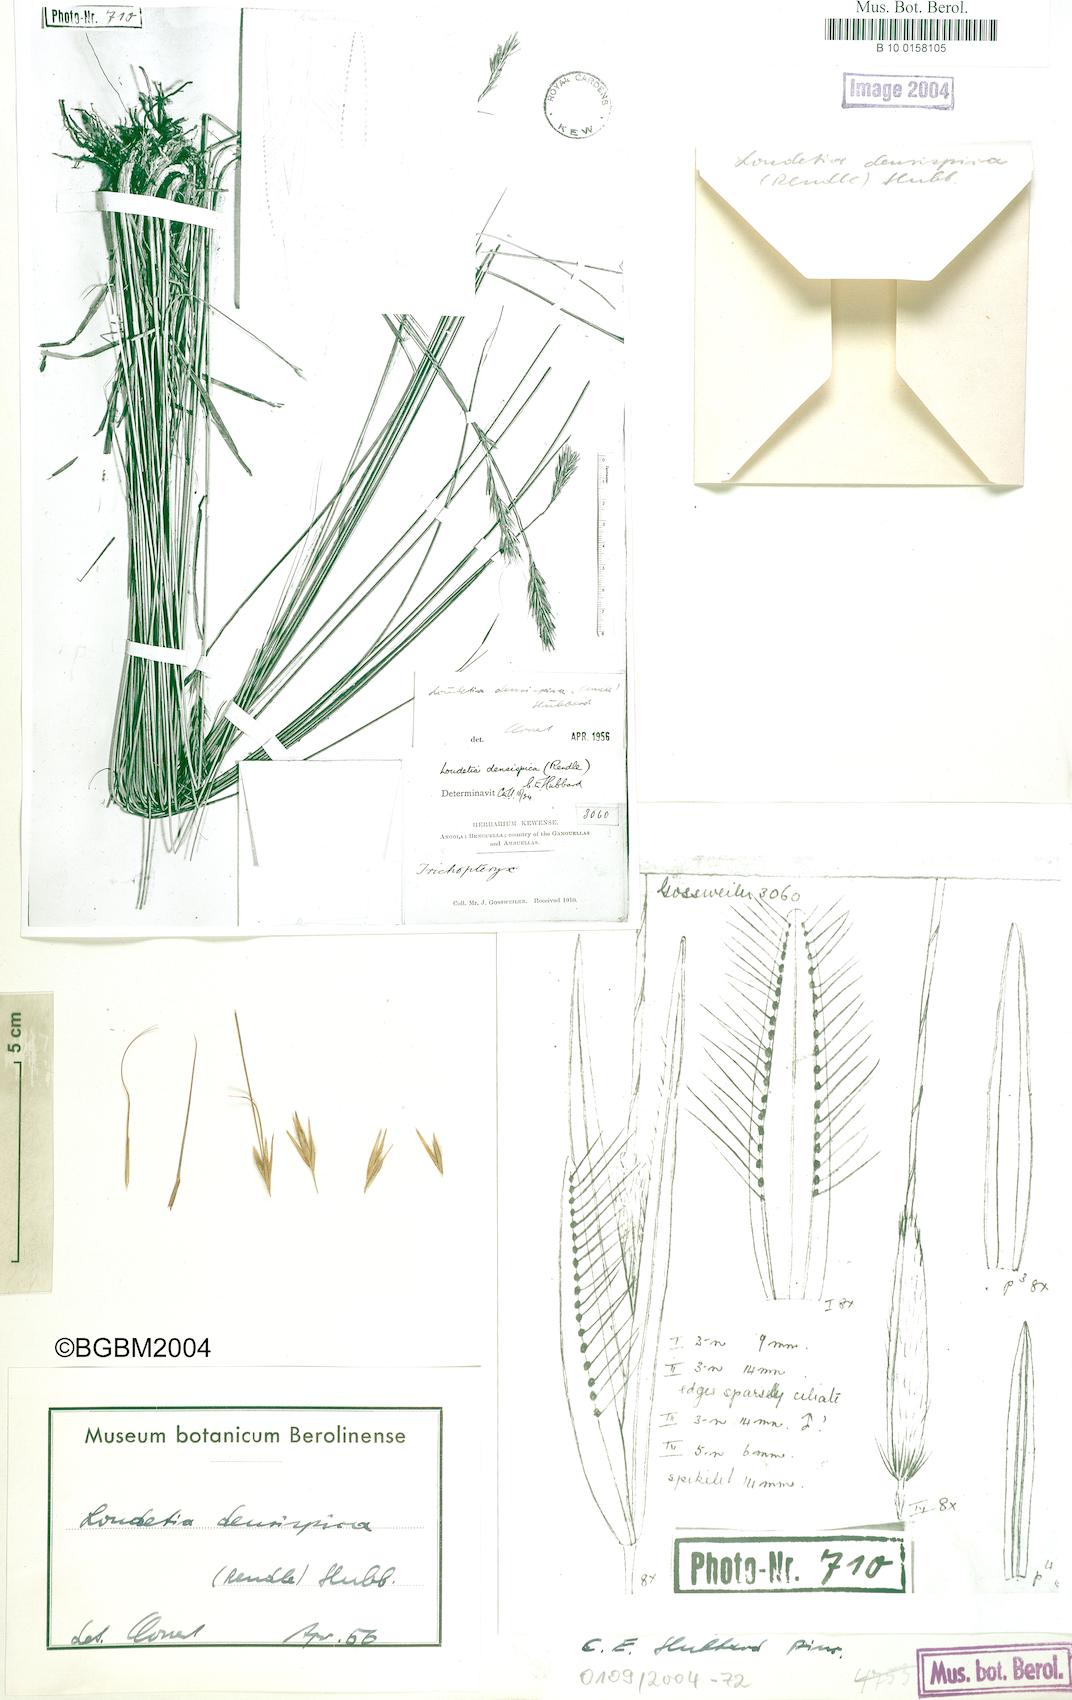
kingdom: Plantae
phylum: Tracheophyta
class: Liliopsida
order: Poales
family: Poaceae
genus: Loudetia
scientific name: Loudetia densispica
